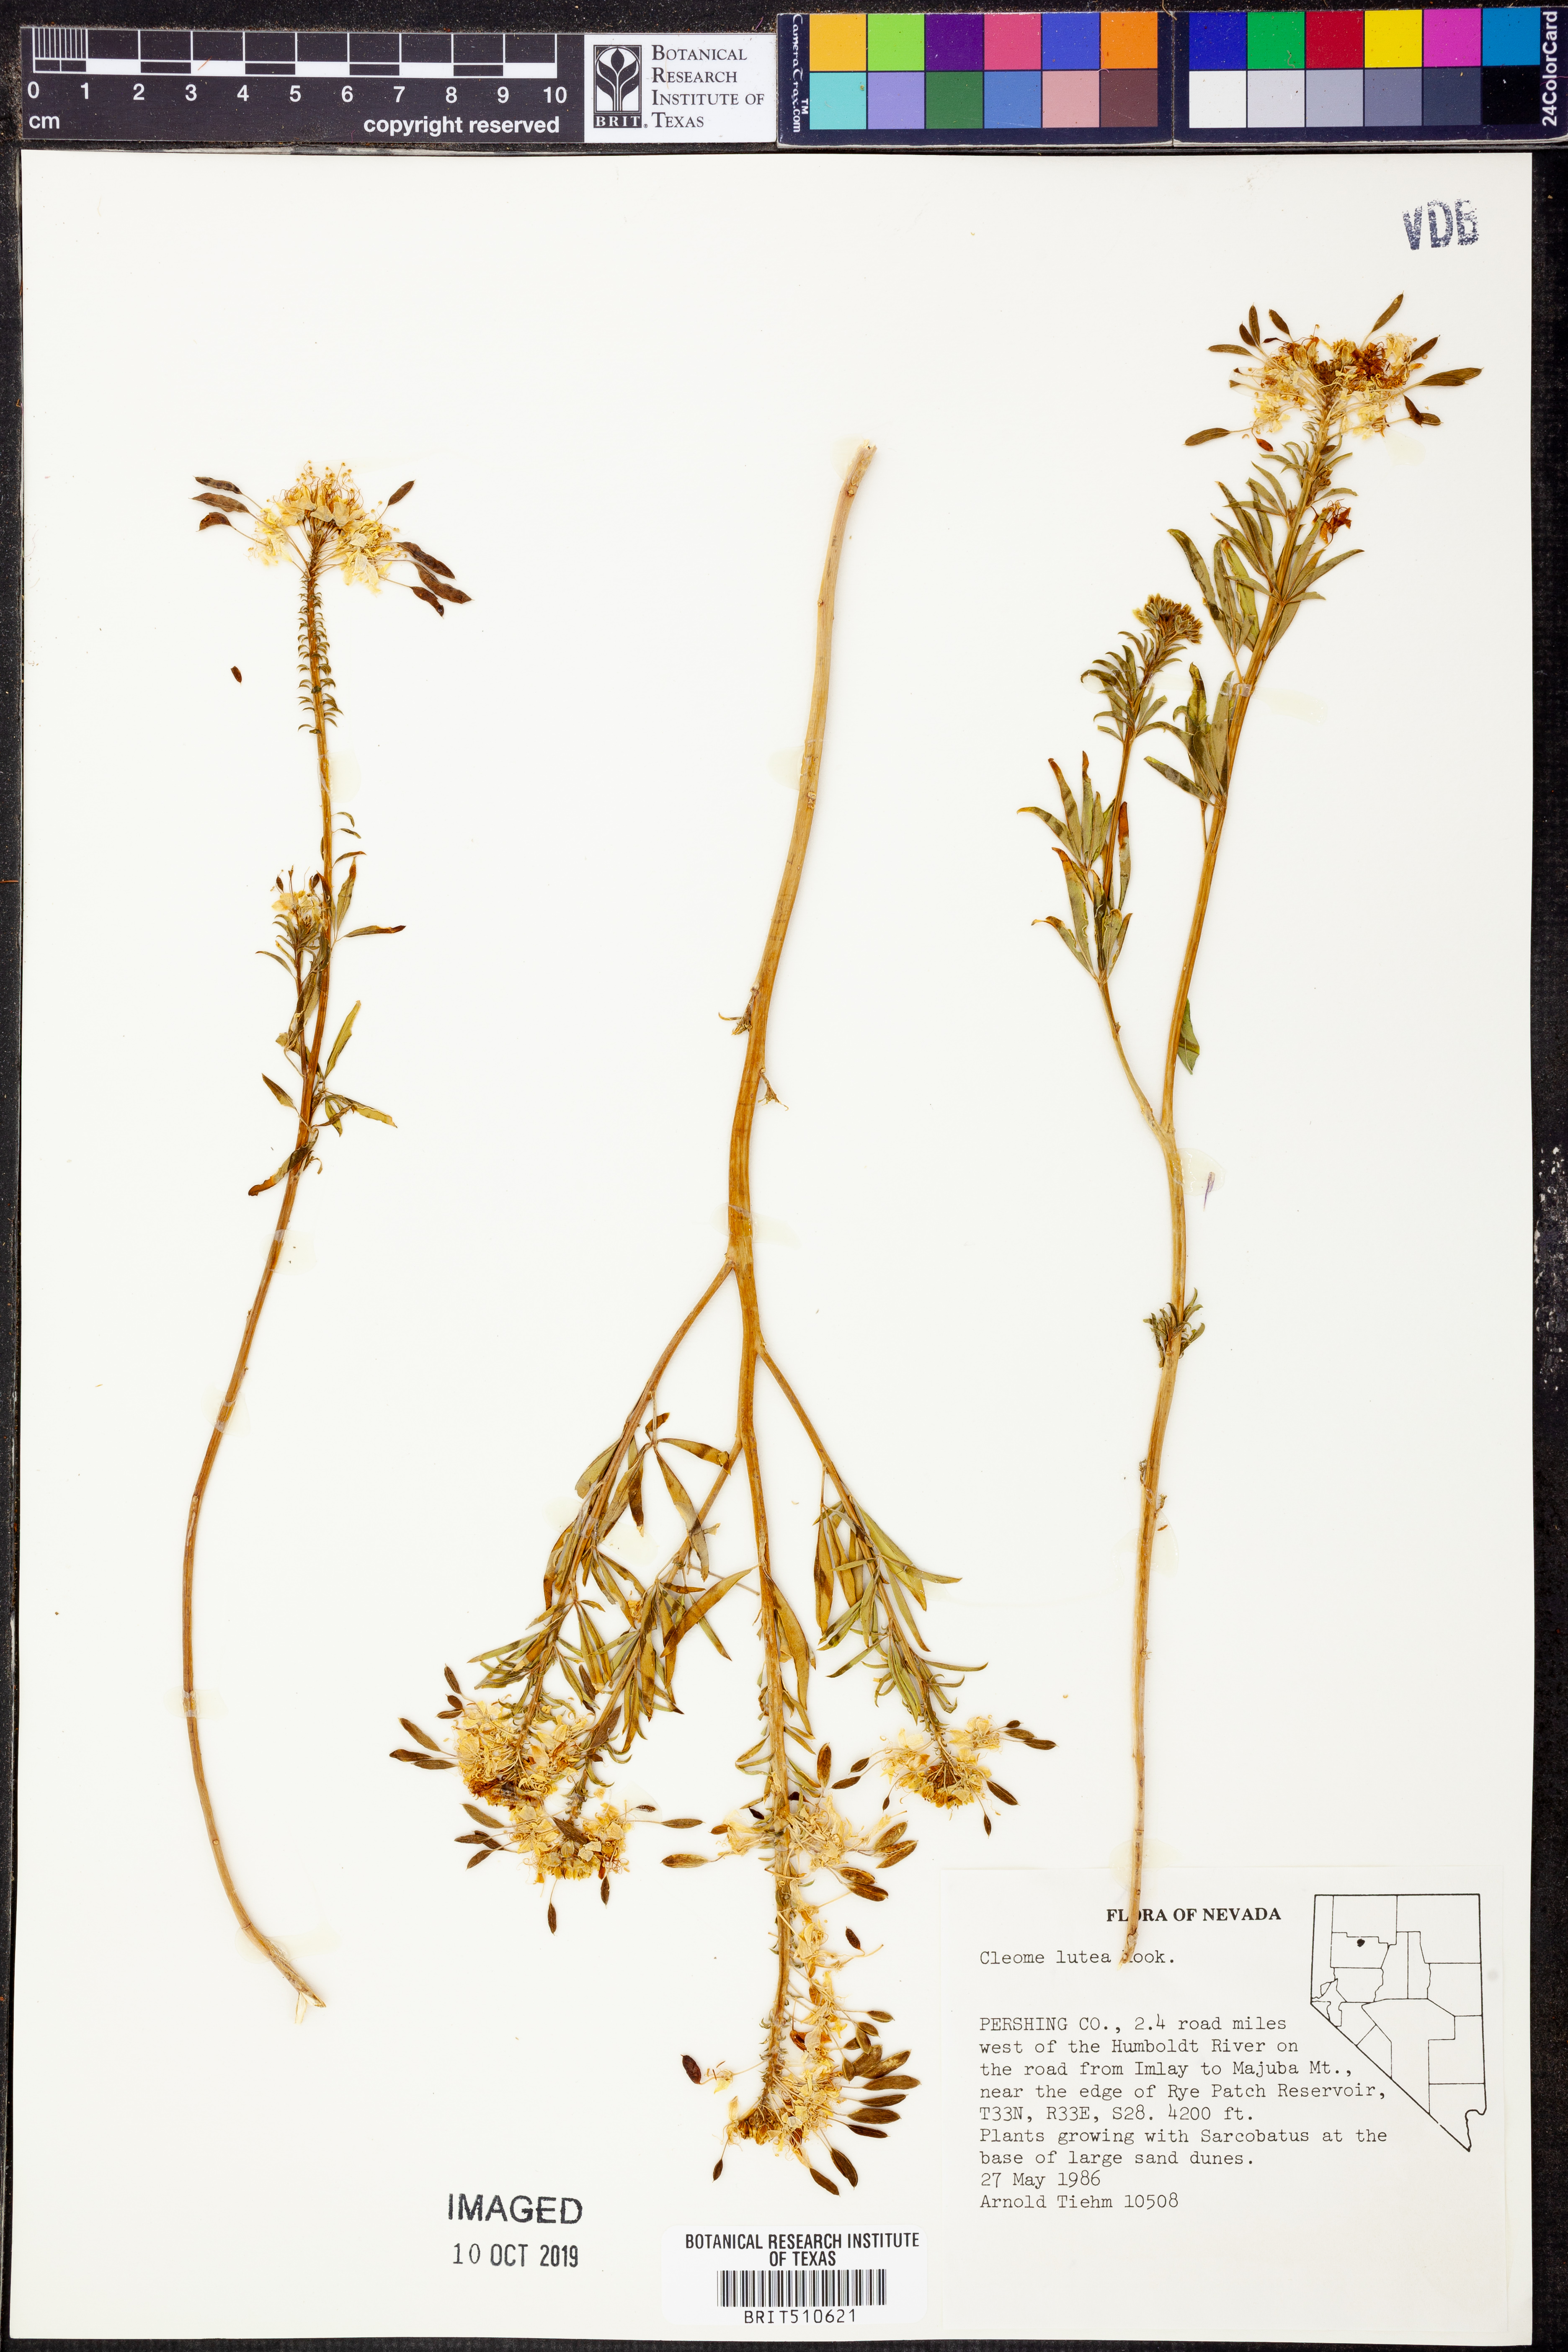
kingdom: Plantae
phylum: Tracheophyta
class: Magnoliopsida
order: Brassicales
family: Cleomaceae
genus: Cleomella
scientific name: Cleomella lutea
